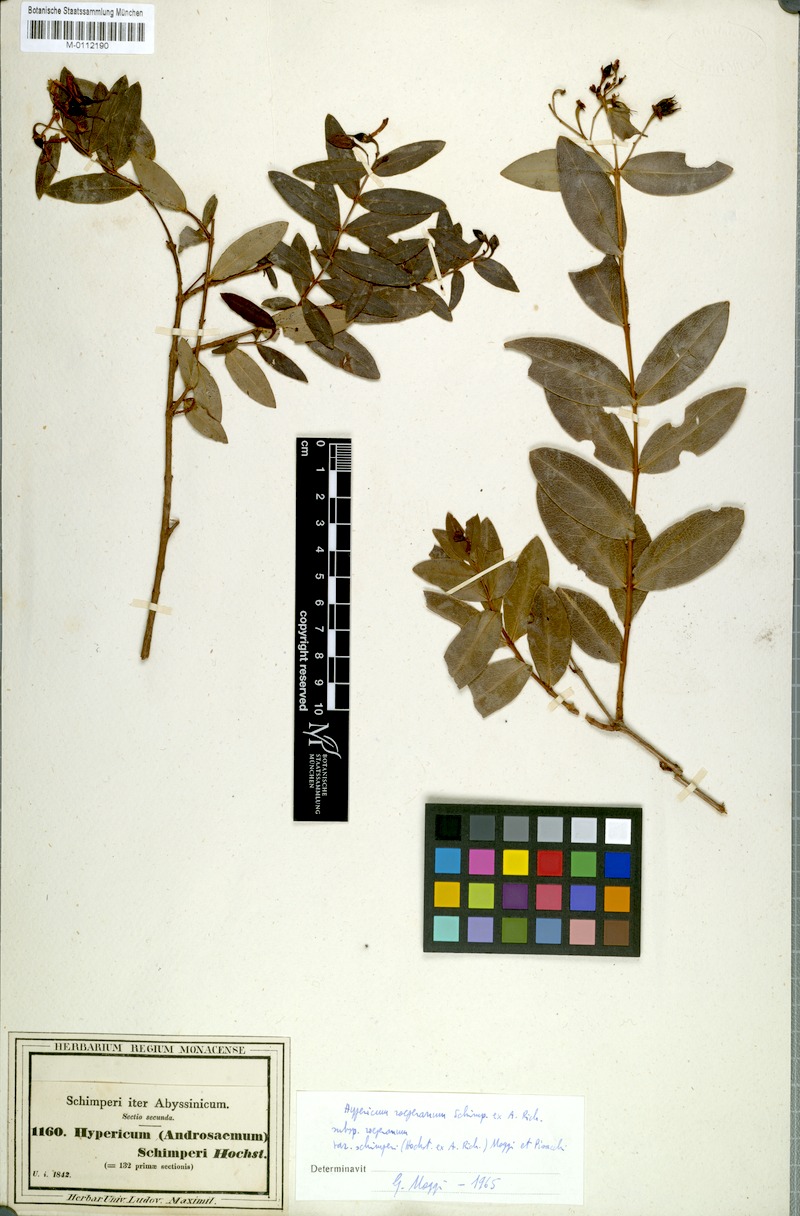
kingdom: Plantae
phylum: Tracheophyta
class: Magnoliopsida
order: Malpighiales
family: Hypericaceae
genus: Hypericum
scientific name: Hypericum roeperianum
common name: Large-leaved curry-bush
